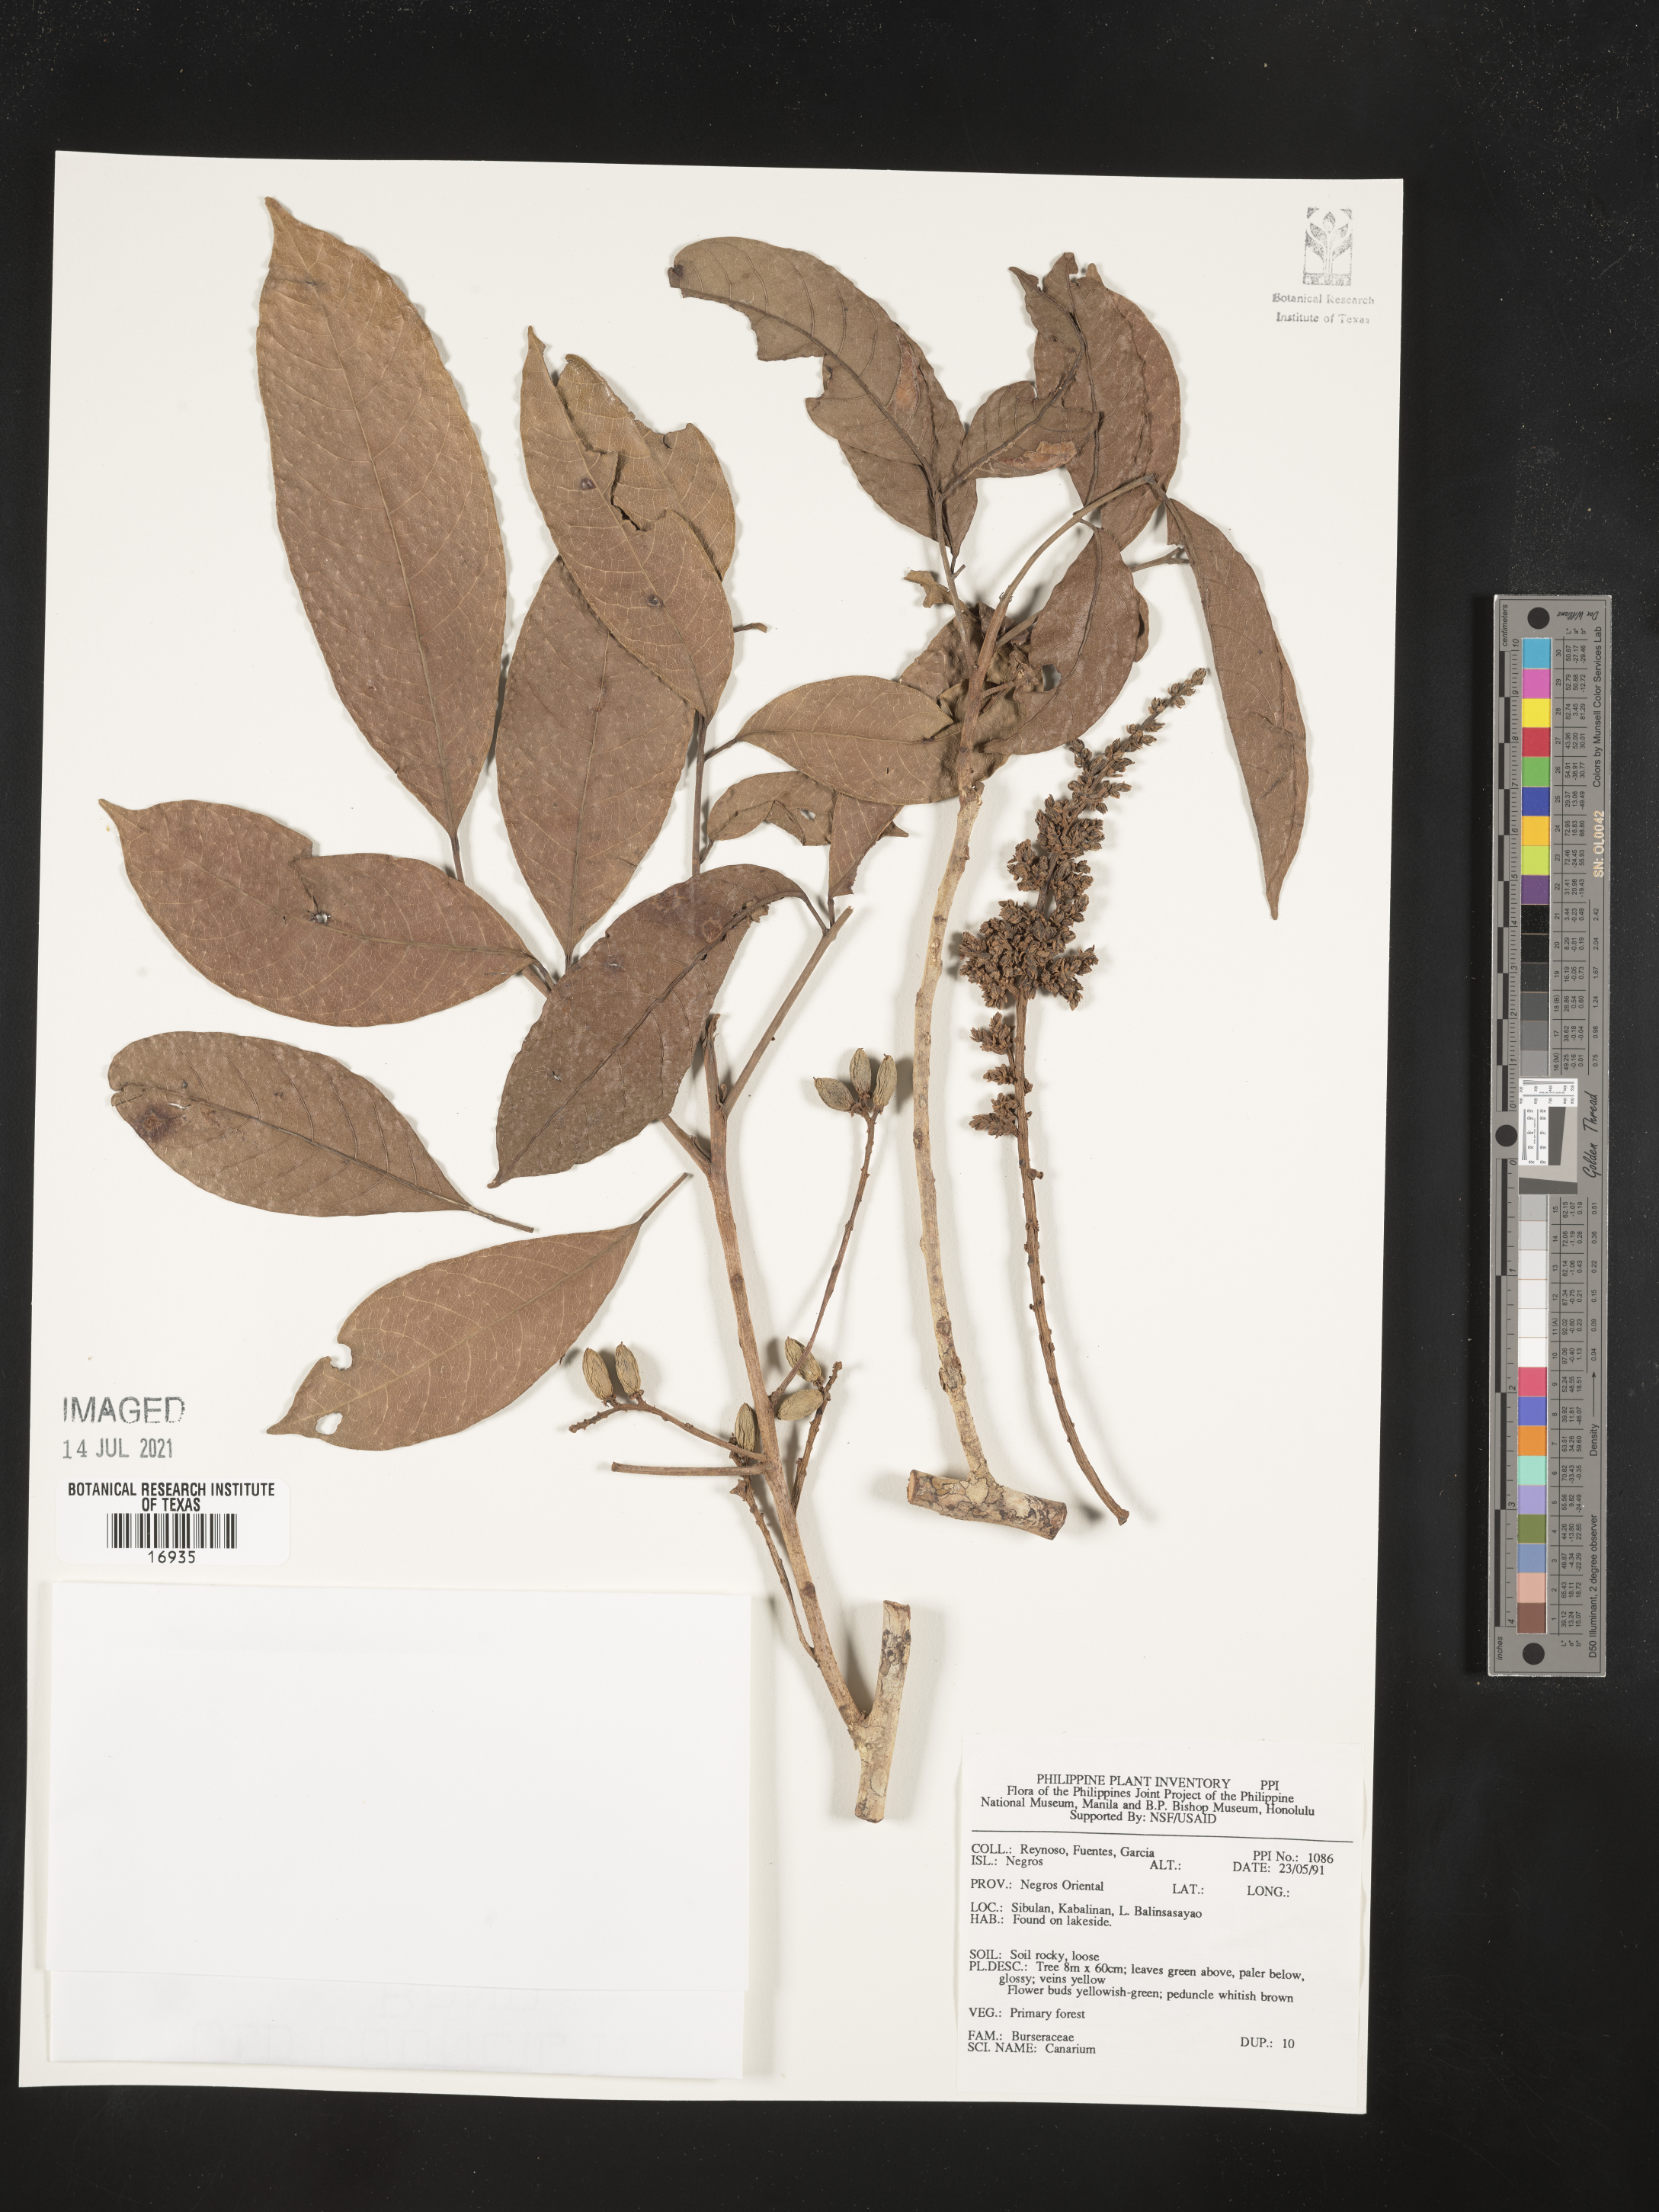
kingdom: Plantae
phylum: Tracheophyta
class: Magnoliopsida
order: Sapindales
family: Burseraceae
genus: Canarium
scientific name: Canarium
